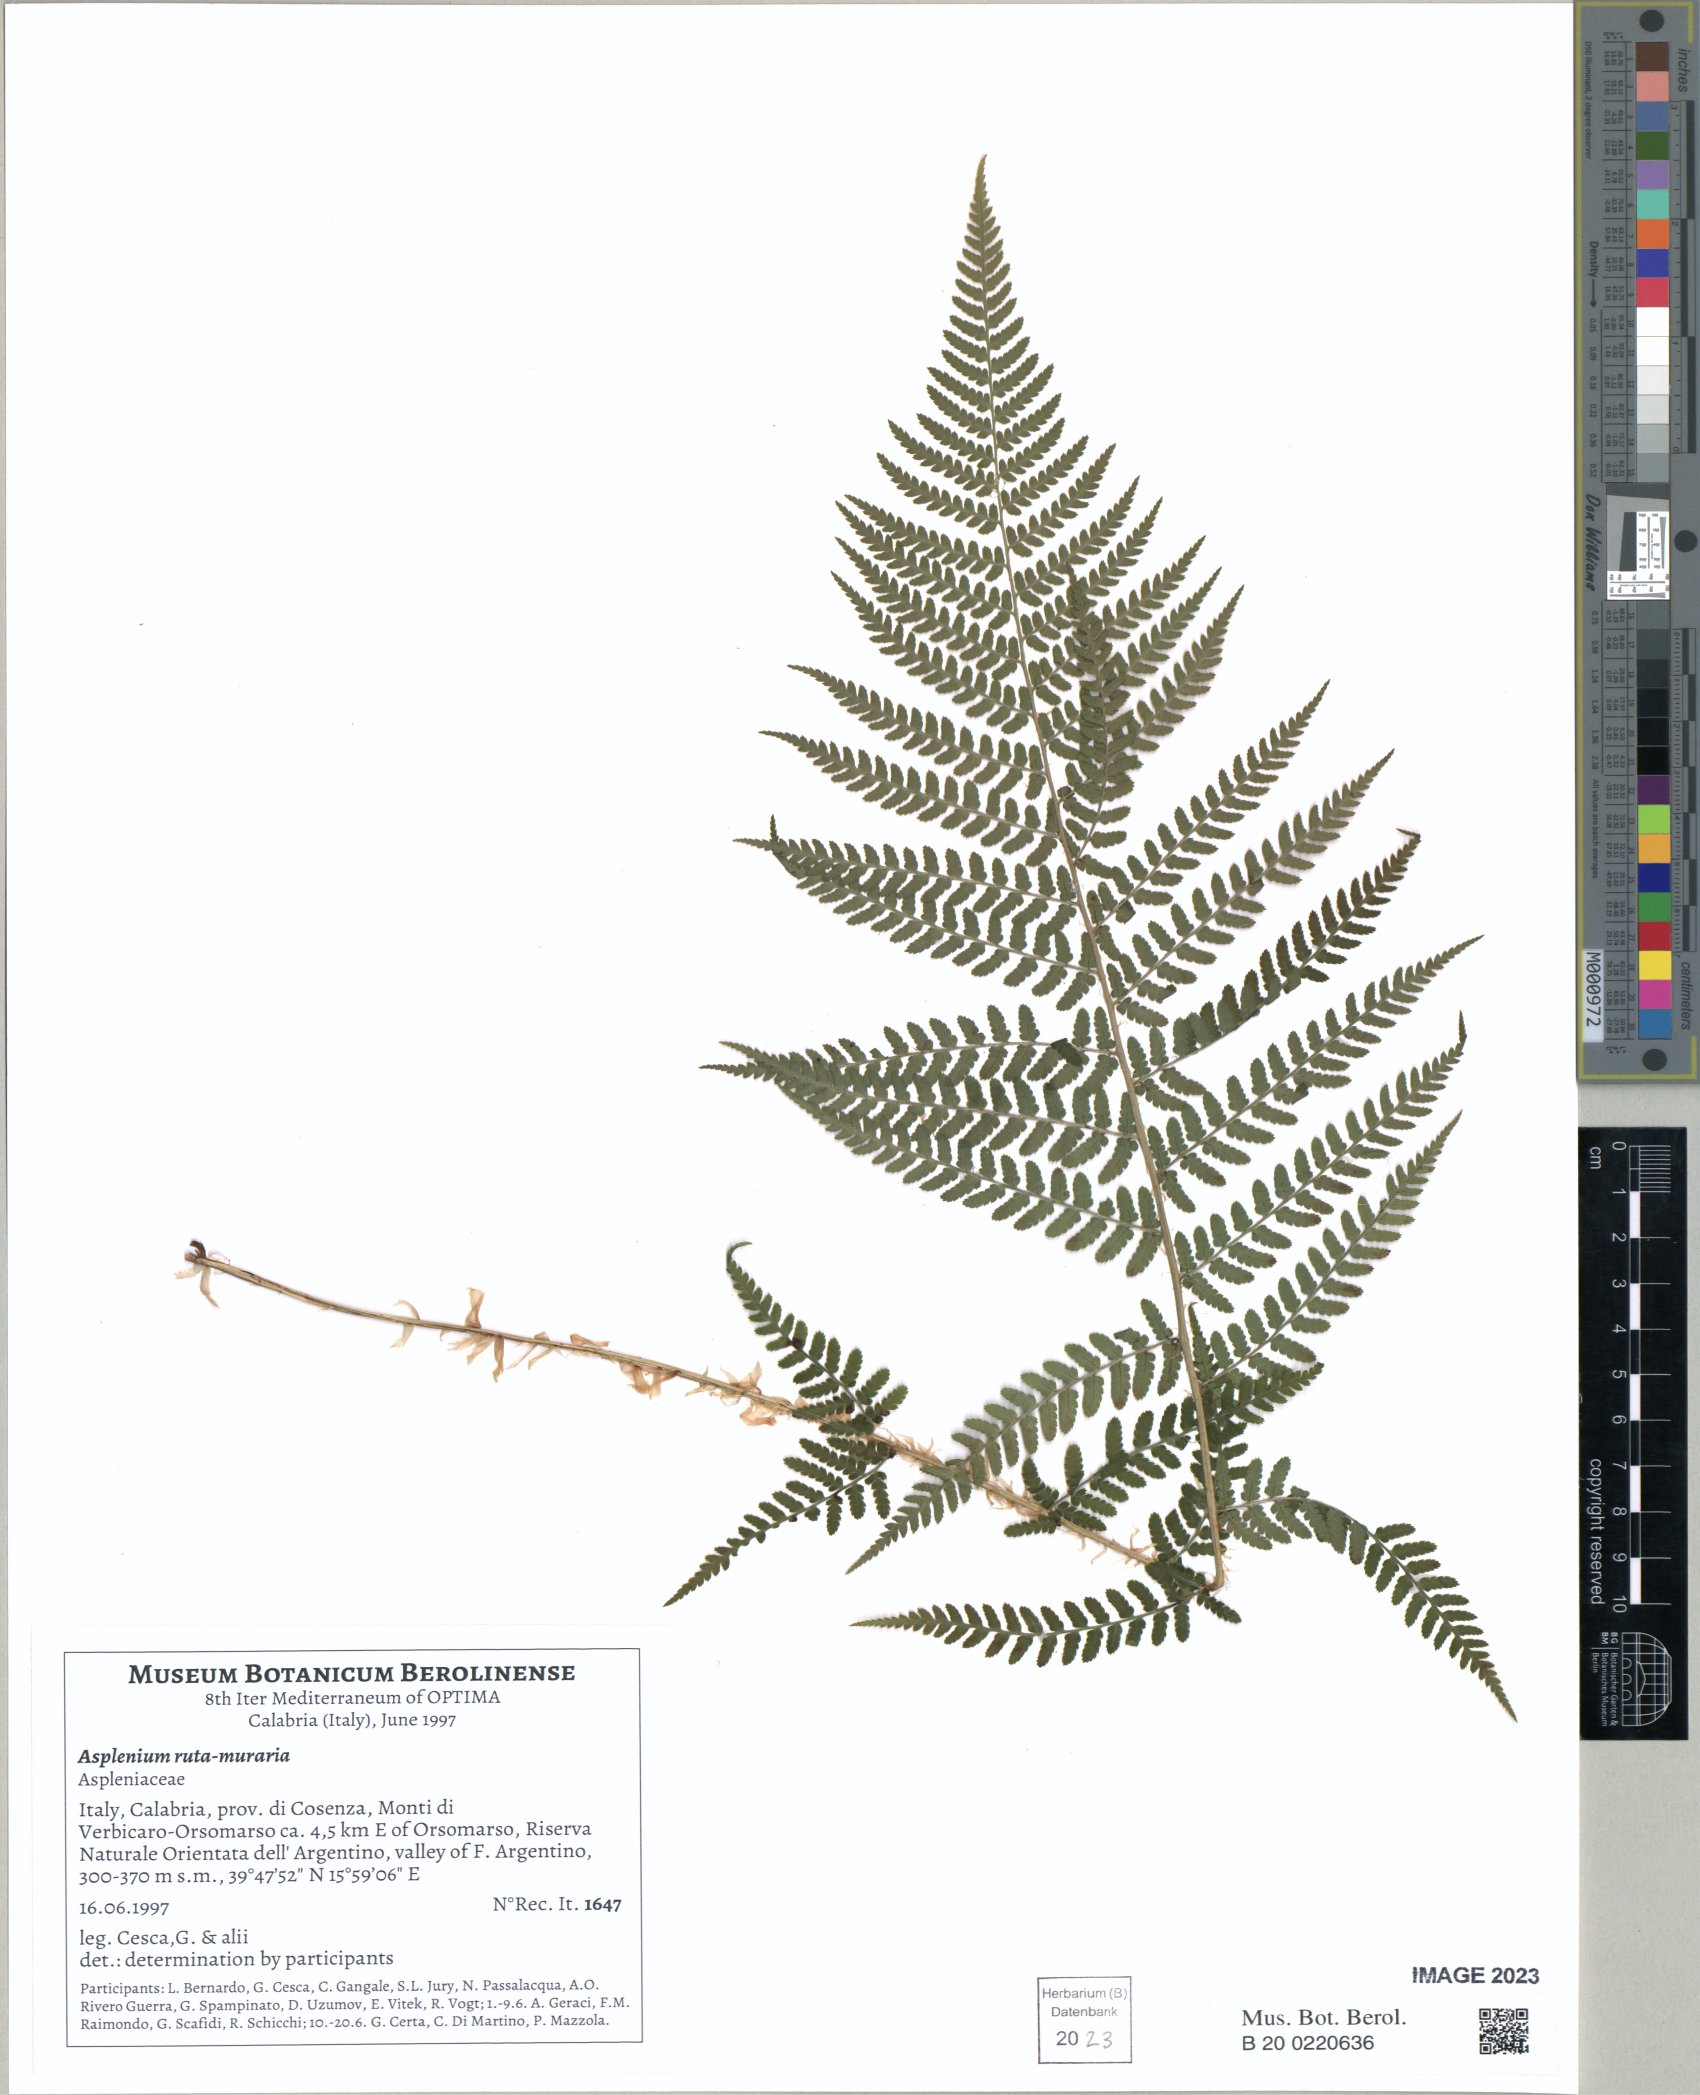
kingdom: Plantae
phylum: Tracheophyta
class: Polypodiopsida
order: Polypodiales
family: Athyriaceae
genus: Athyrium
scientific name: Athyrium filix-femina
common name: Lady fern
